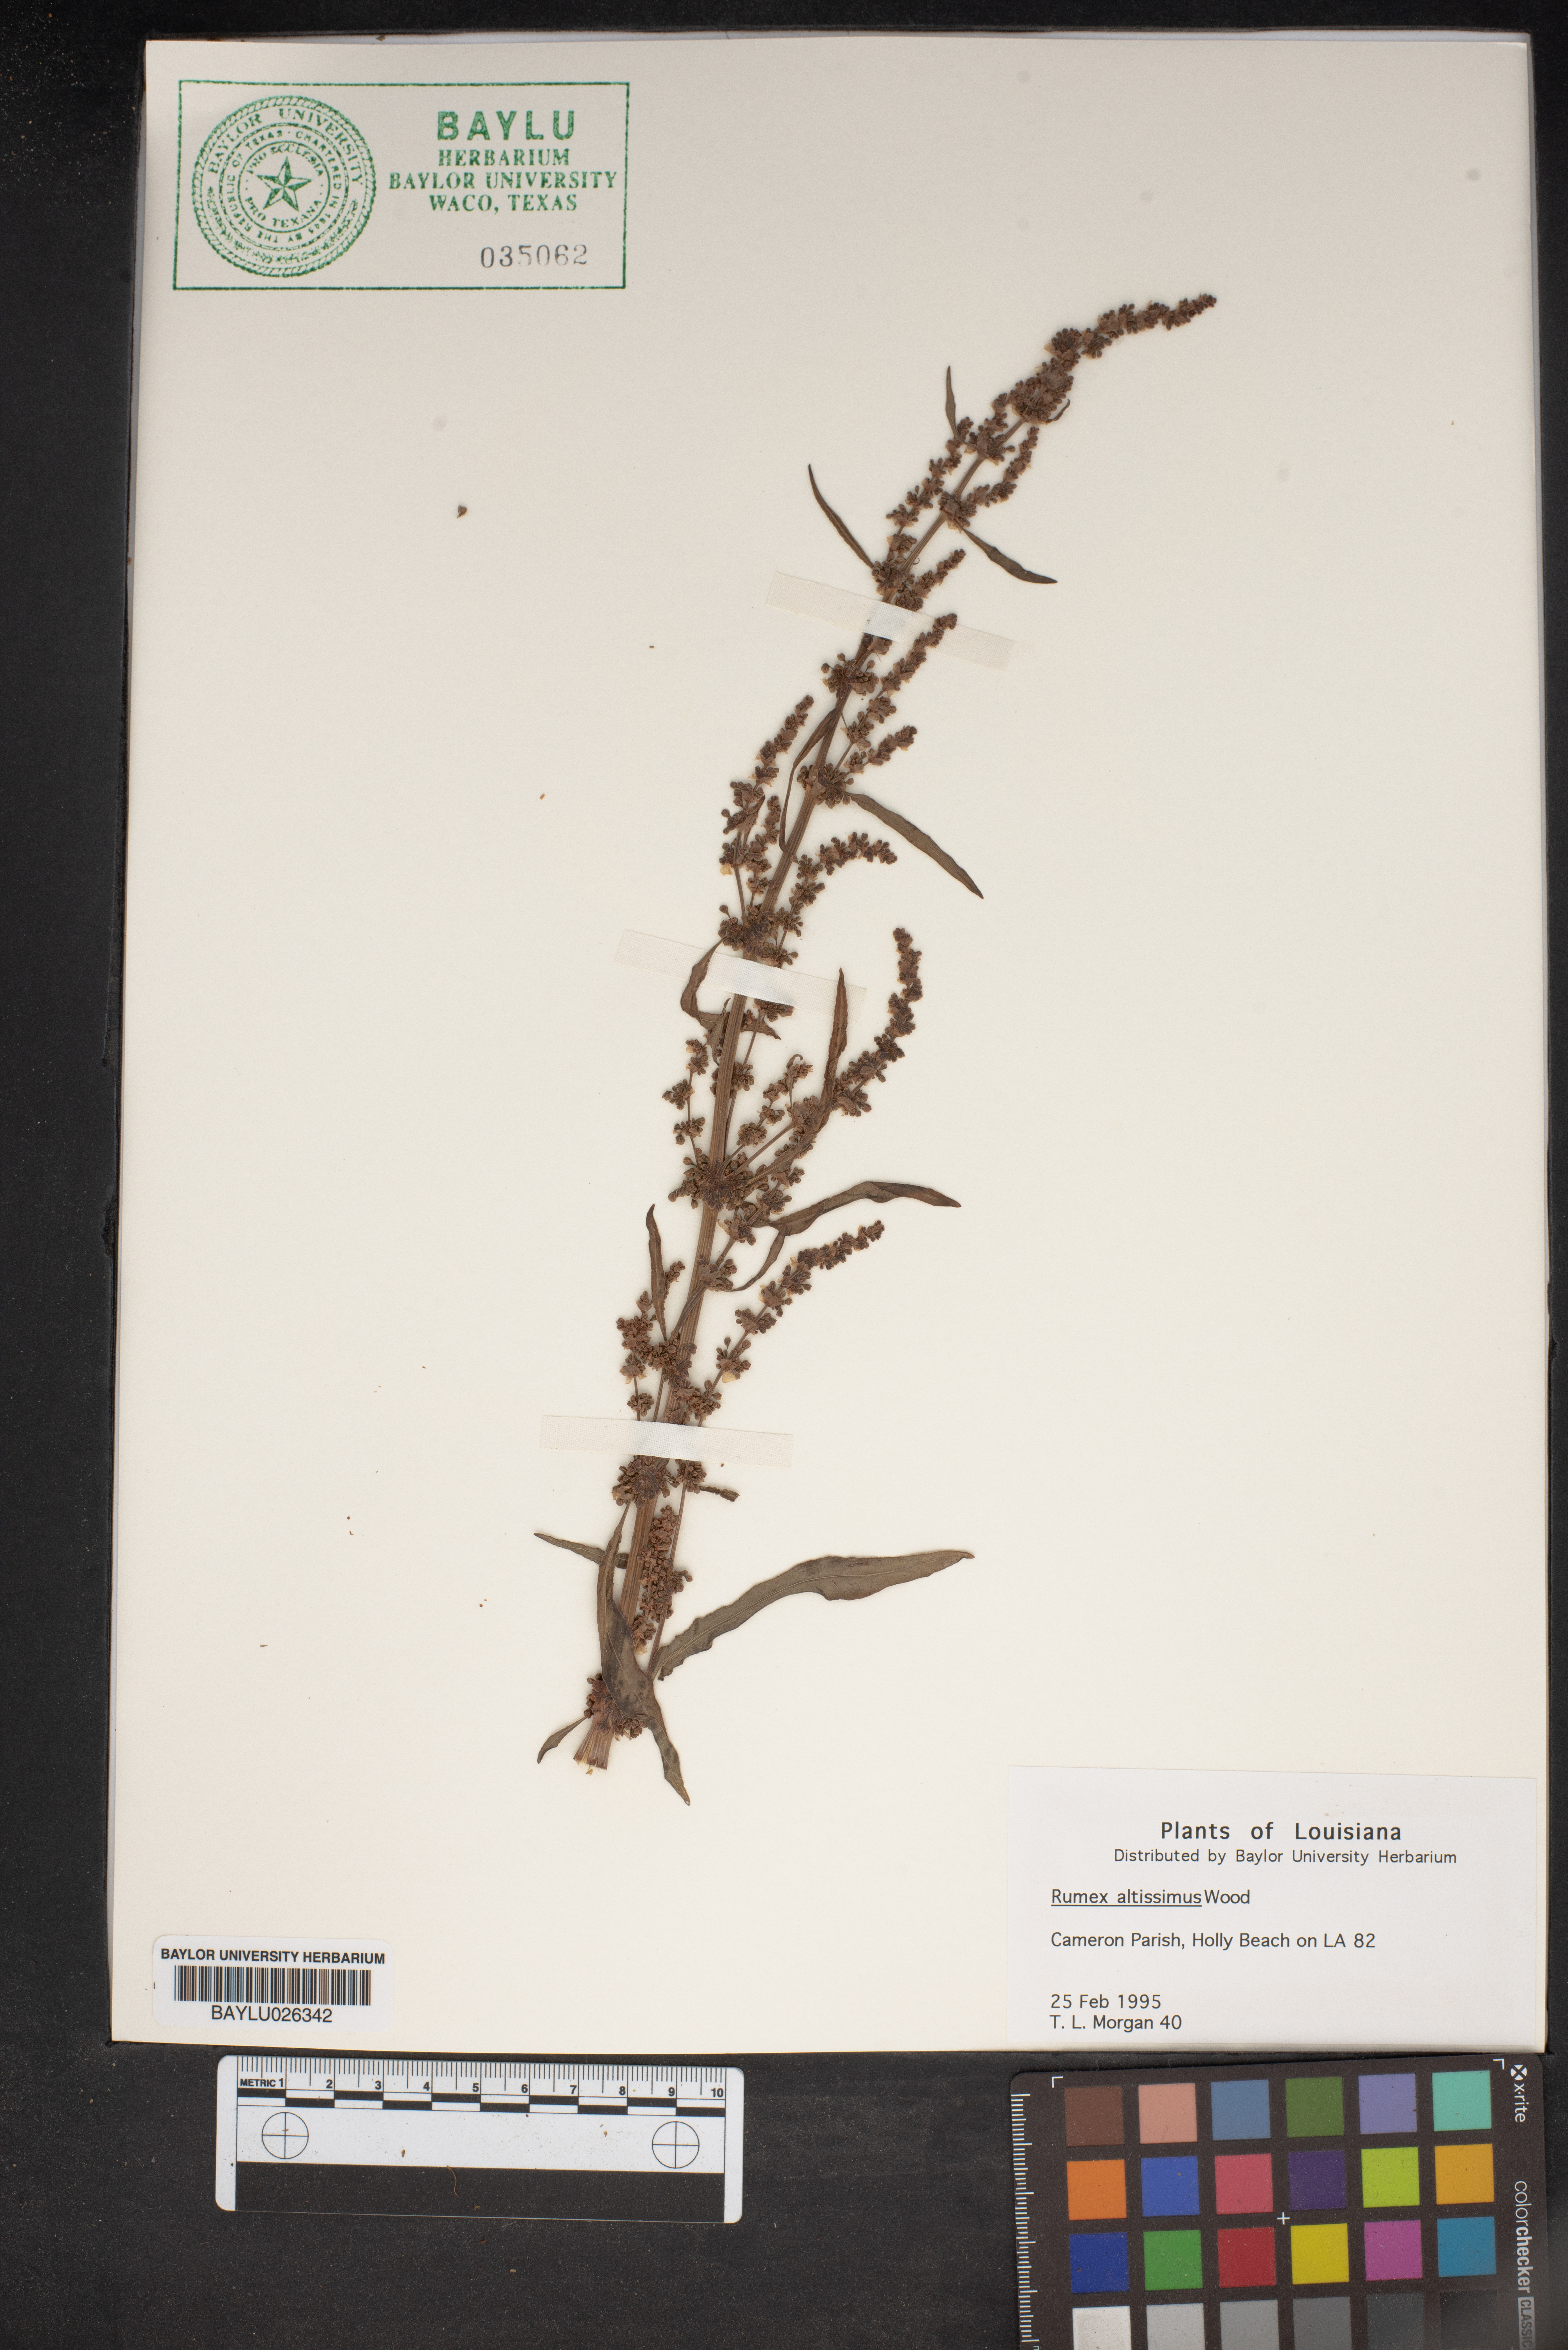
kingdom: Plantae
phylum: Tracheophyta
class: Magnoliopsida
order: Caryophyllales
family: Polygonaceae
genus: Rumex
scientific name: Rumex altissimus
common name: Smooth dock
